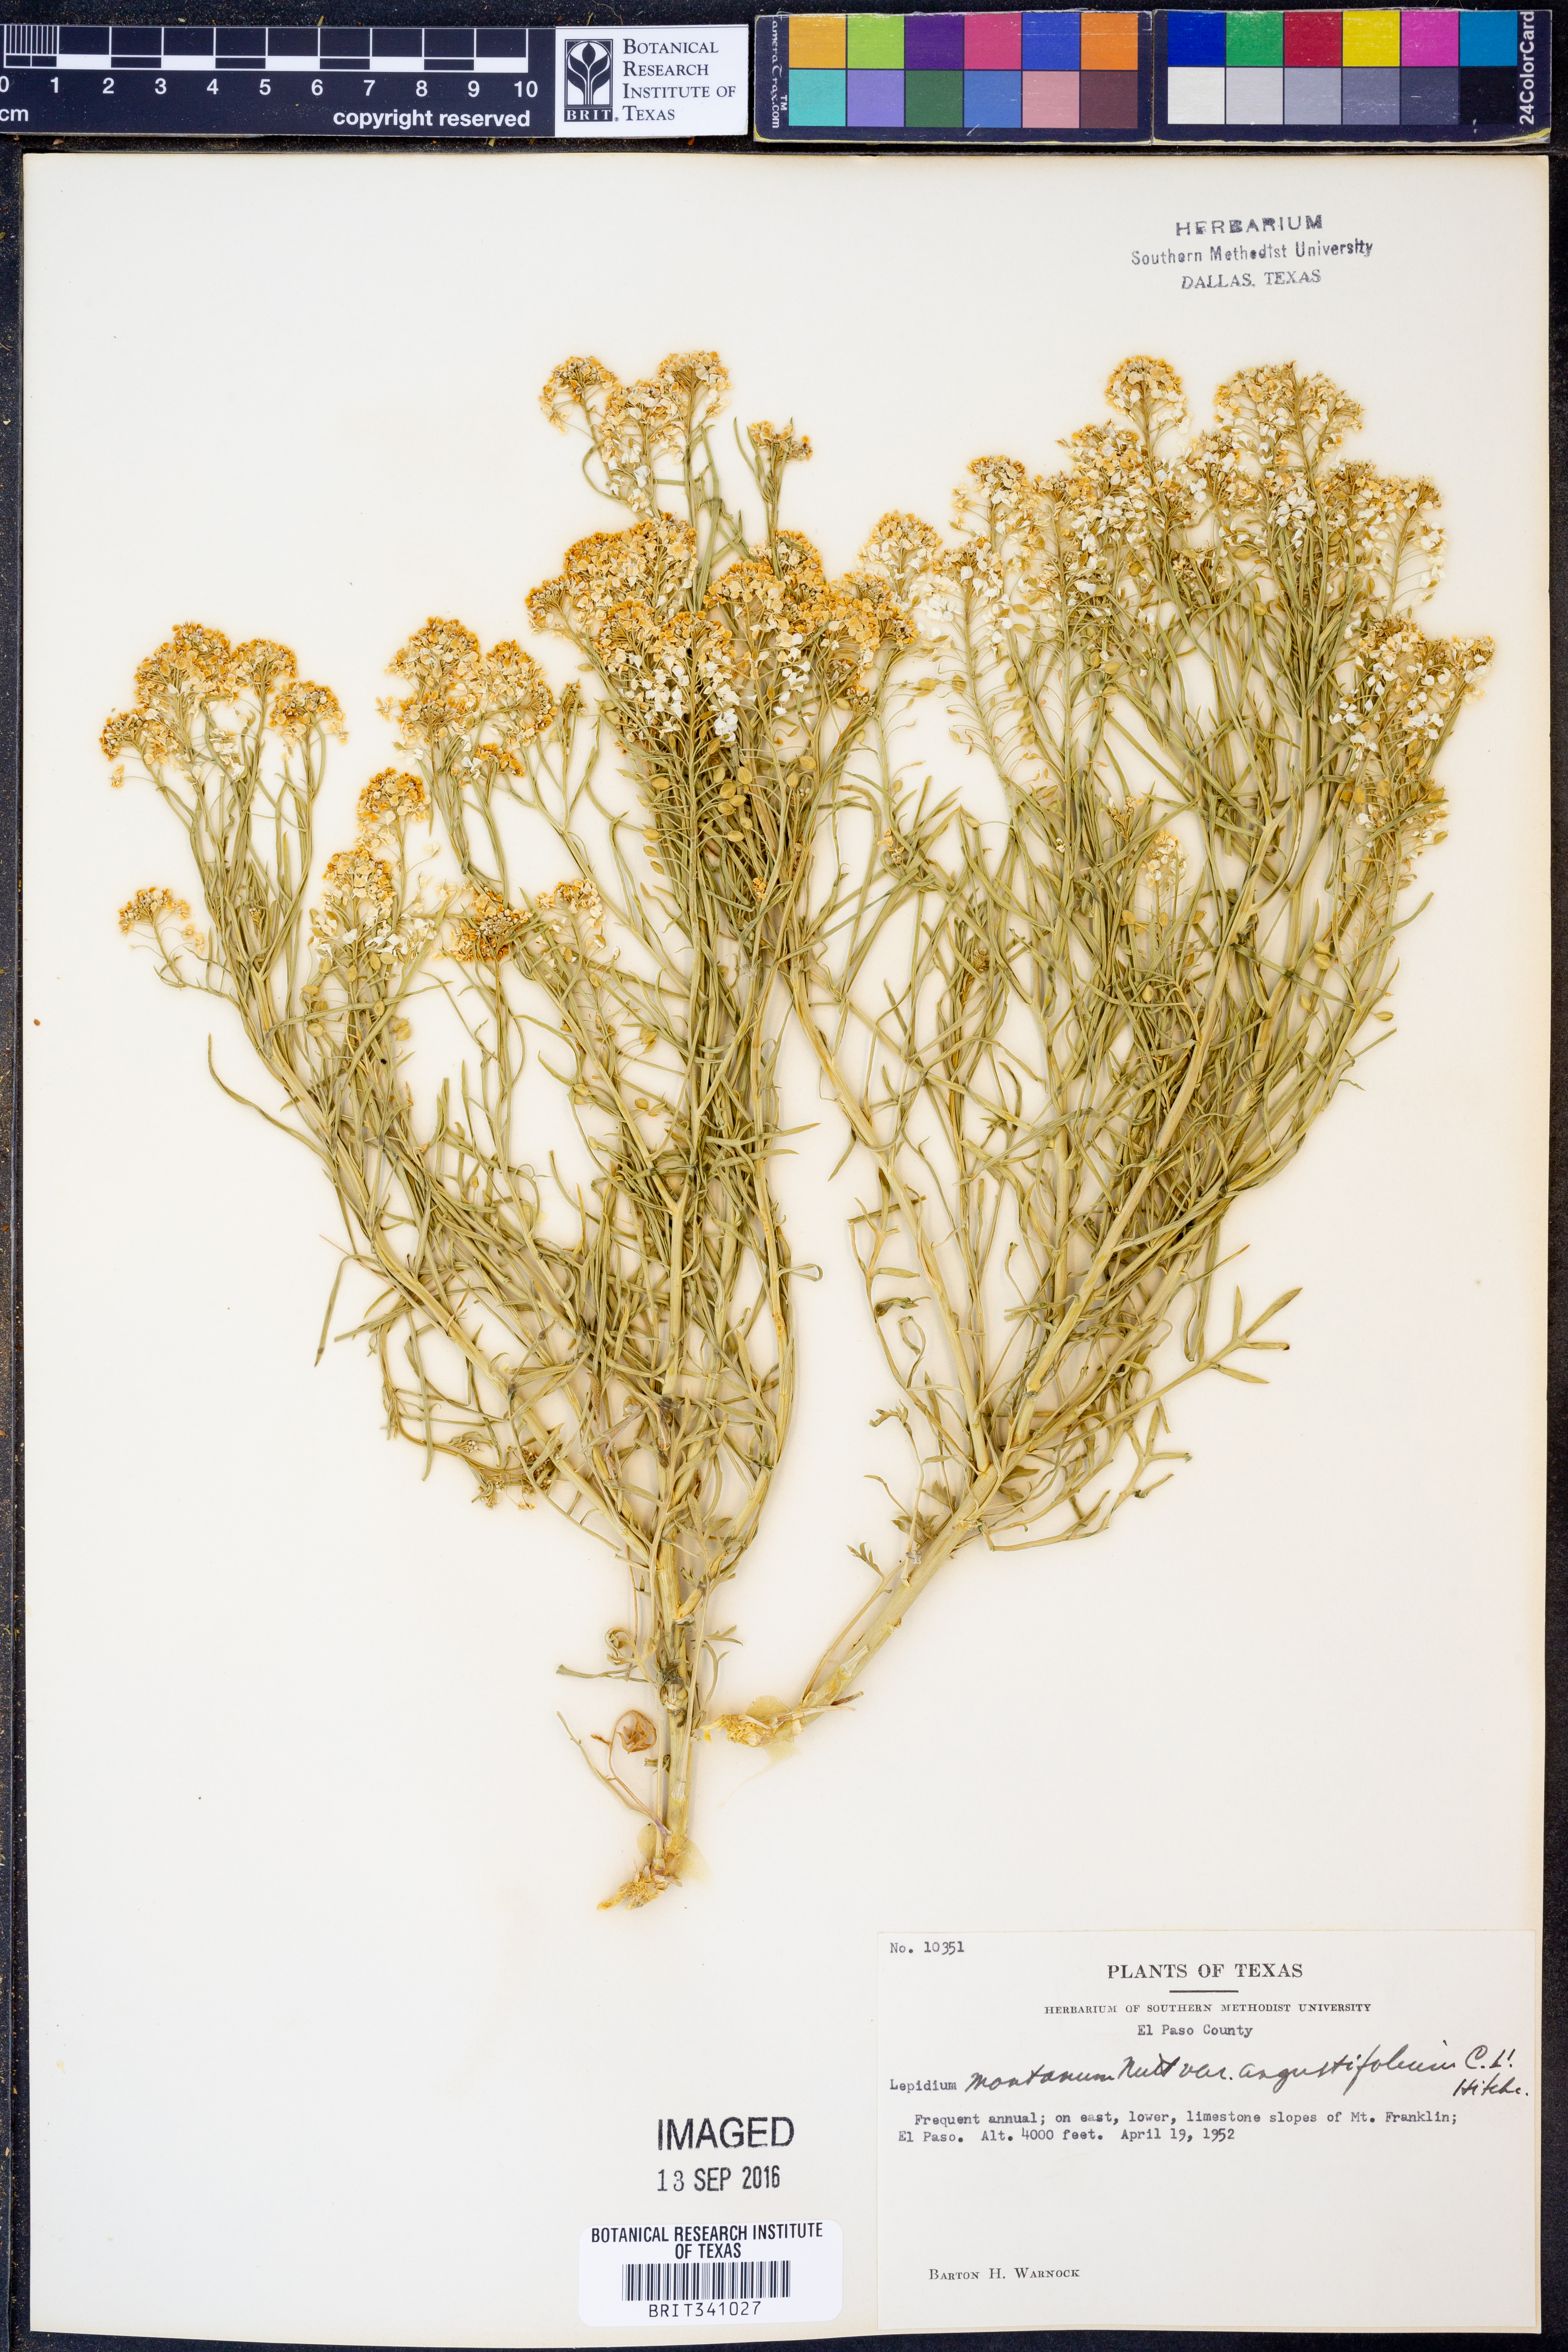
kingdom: Plantae
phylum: Tracheophyta
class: Magnoliopsida
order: Brassicales
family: Brassicaceae
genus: Lepidium
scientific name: Lepidium alyssoides
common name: Mesa pepperweed
